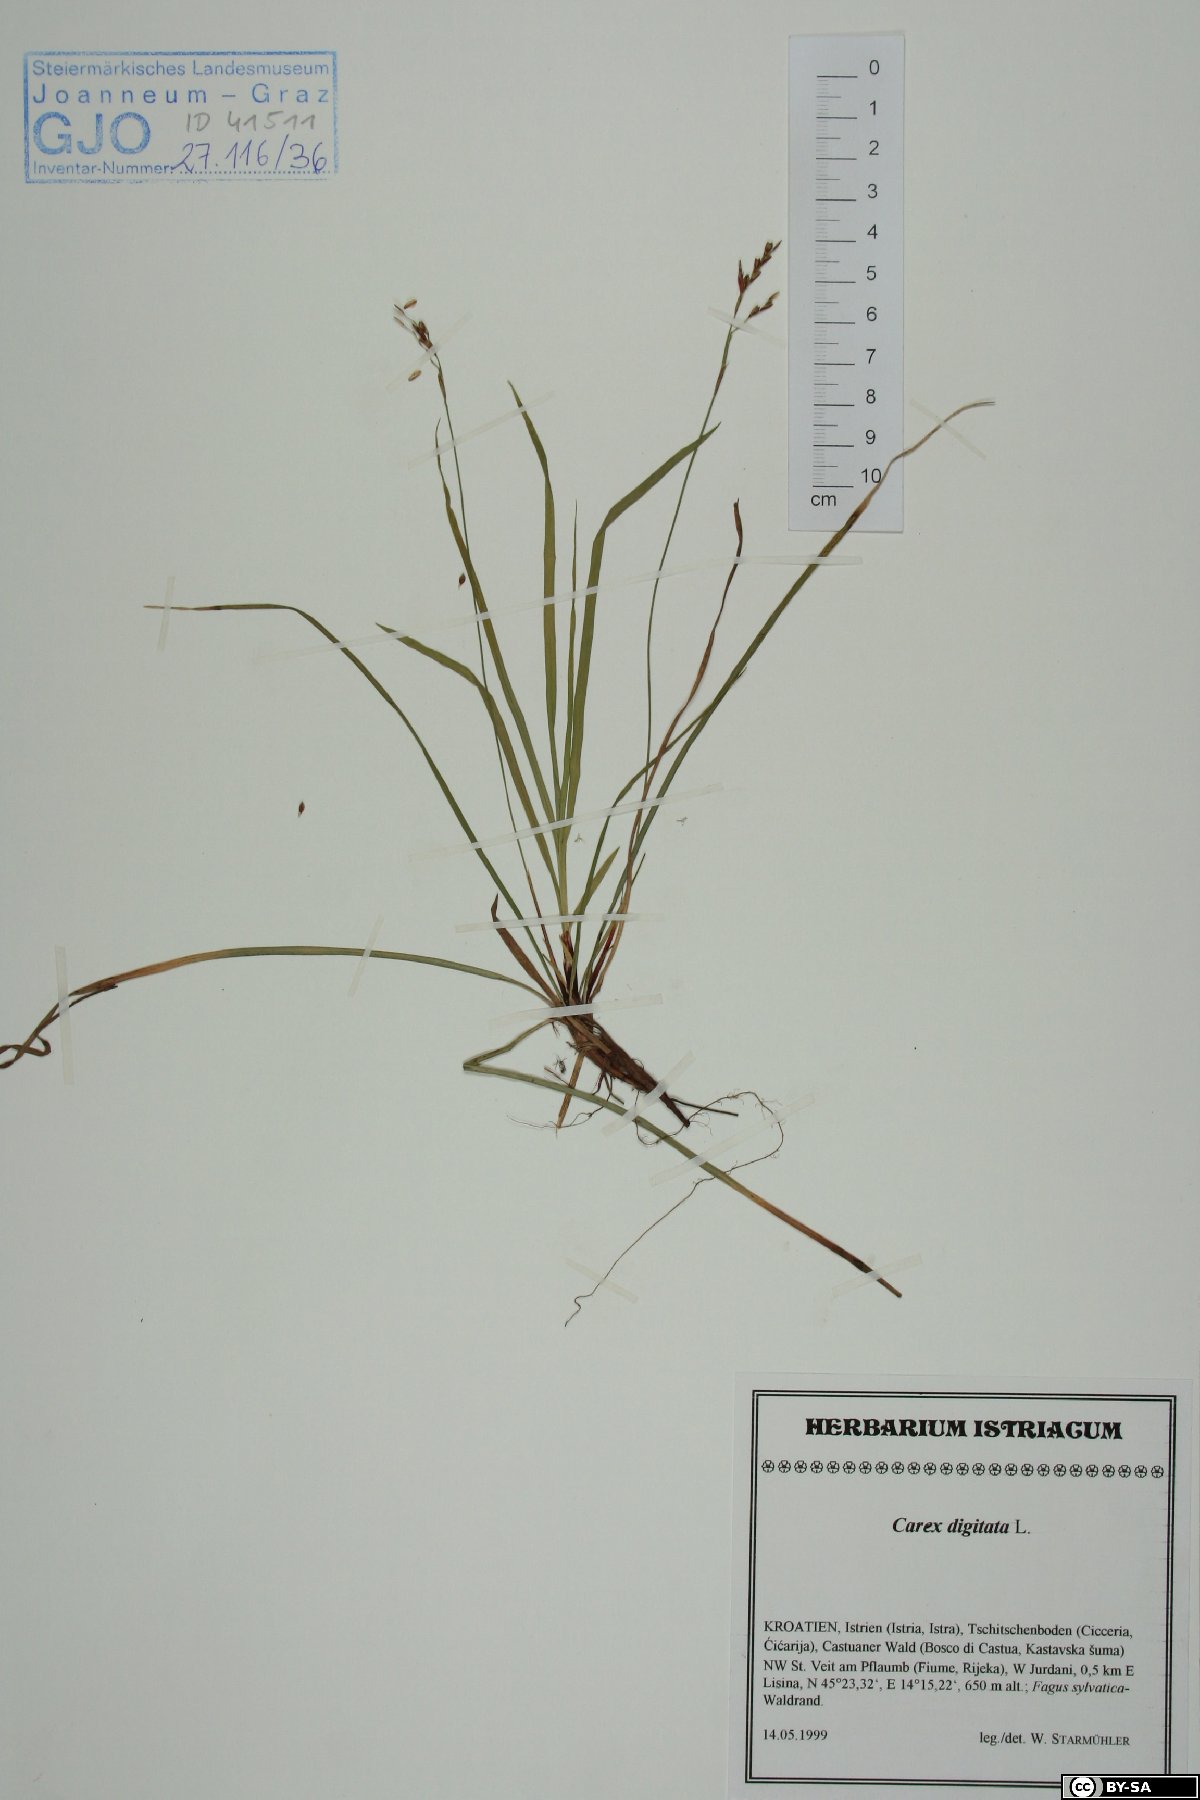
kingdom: Plantae
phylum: Tracheophyta
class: Liliopsida
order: Poales
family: Cyperaceae
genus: Carex
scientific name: Carex digitata
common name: Fingered sedge
